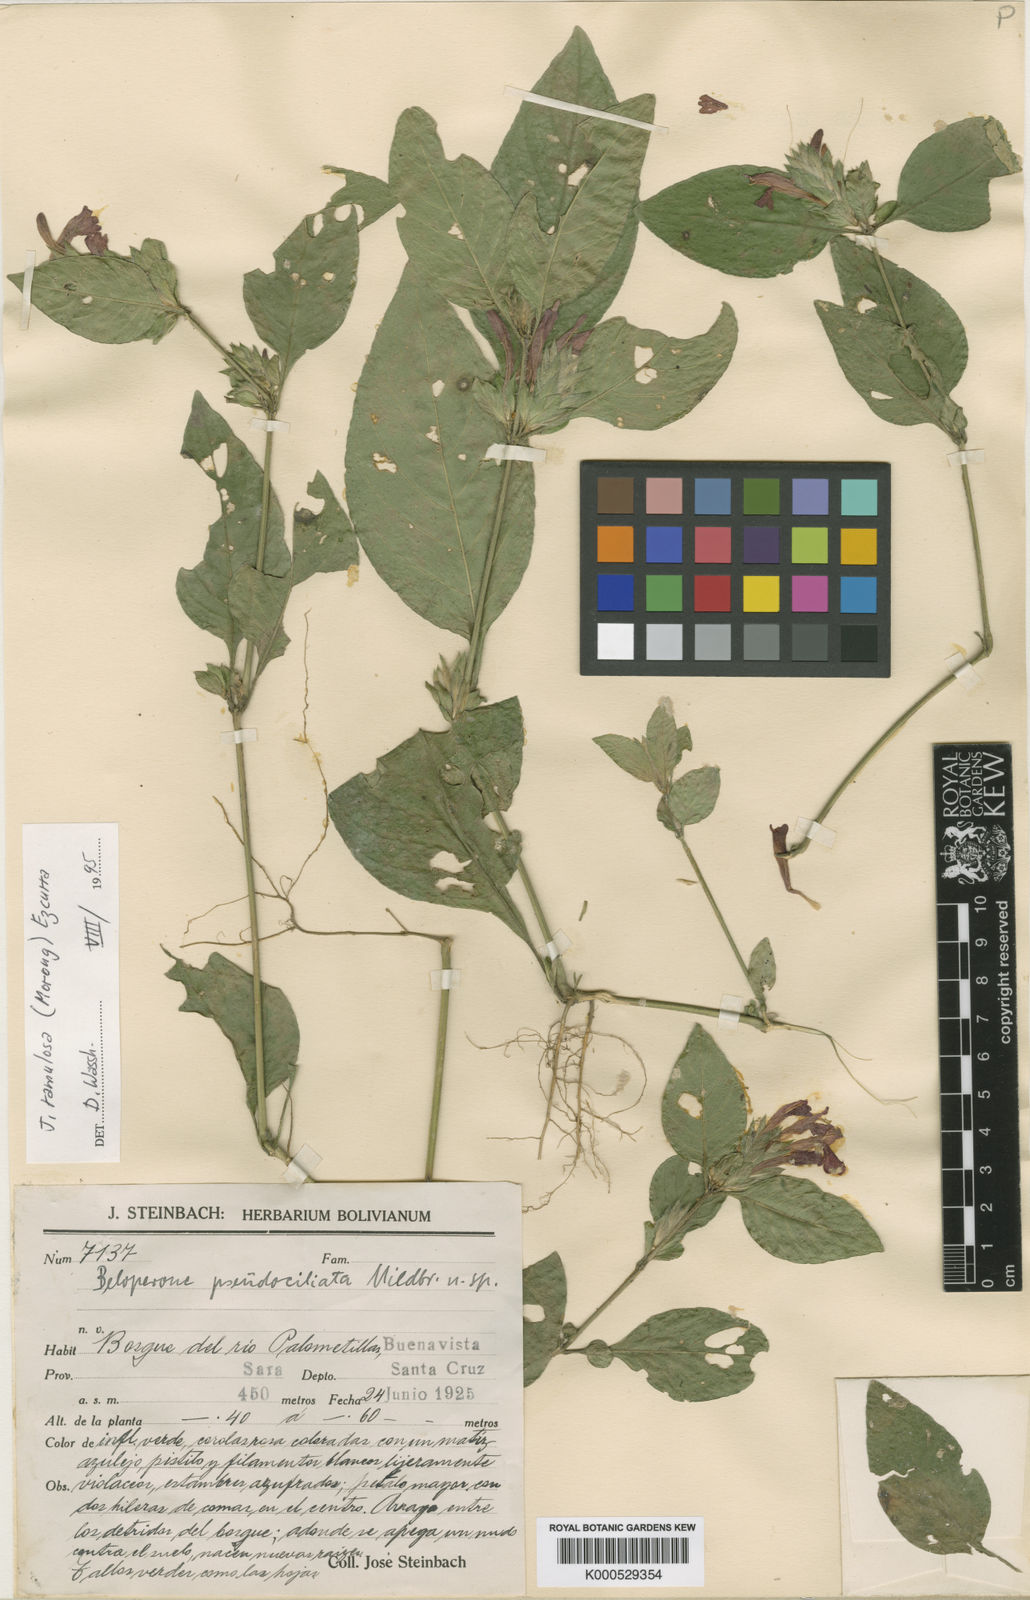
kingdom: Plantae
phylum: Tracheophyta
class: Magnoliopsida
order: Lamiales
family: Acanthaceae
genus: Justicia
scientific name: Justicia ramulosa
